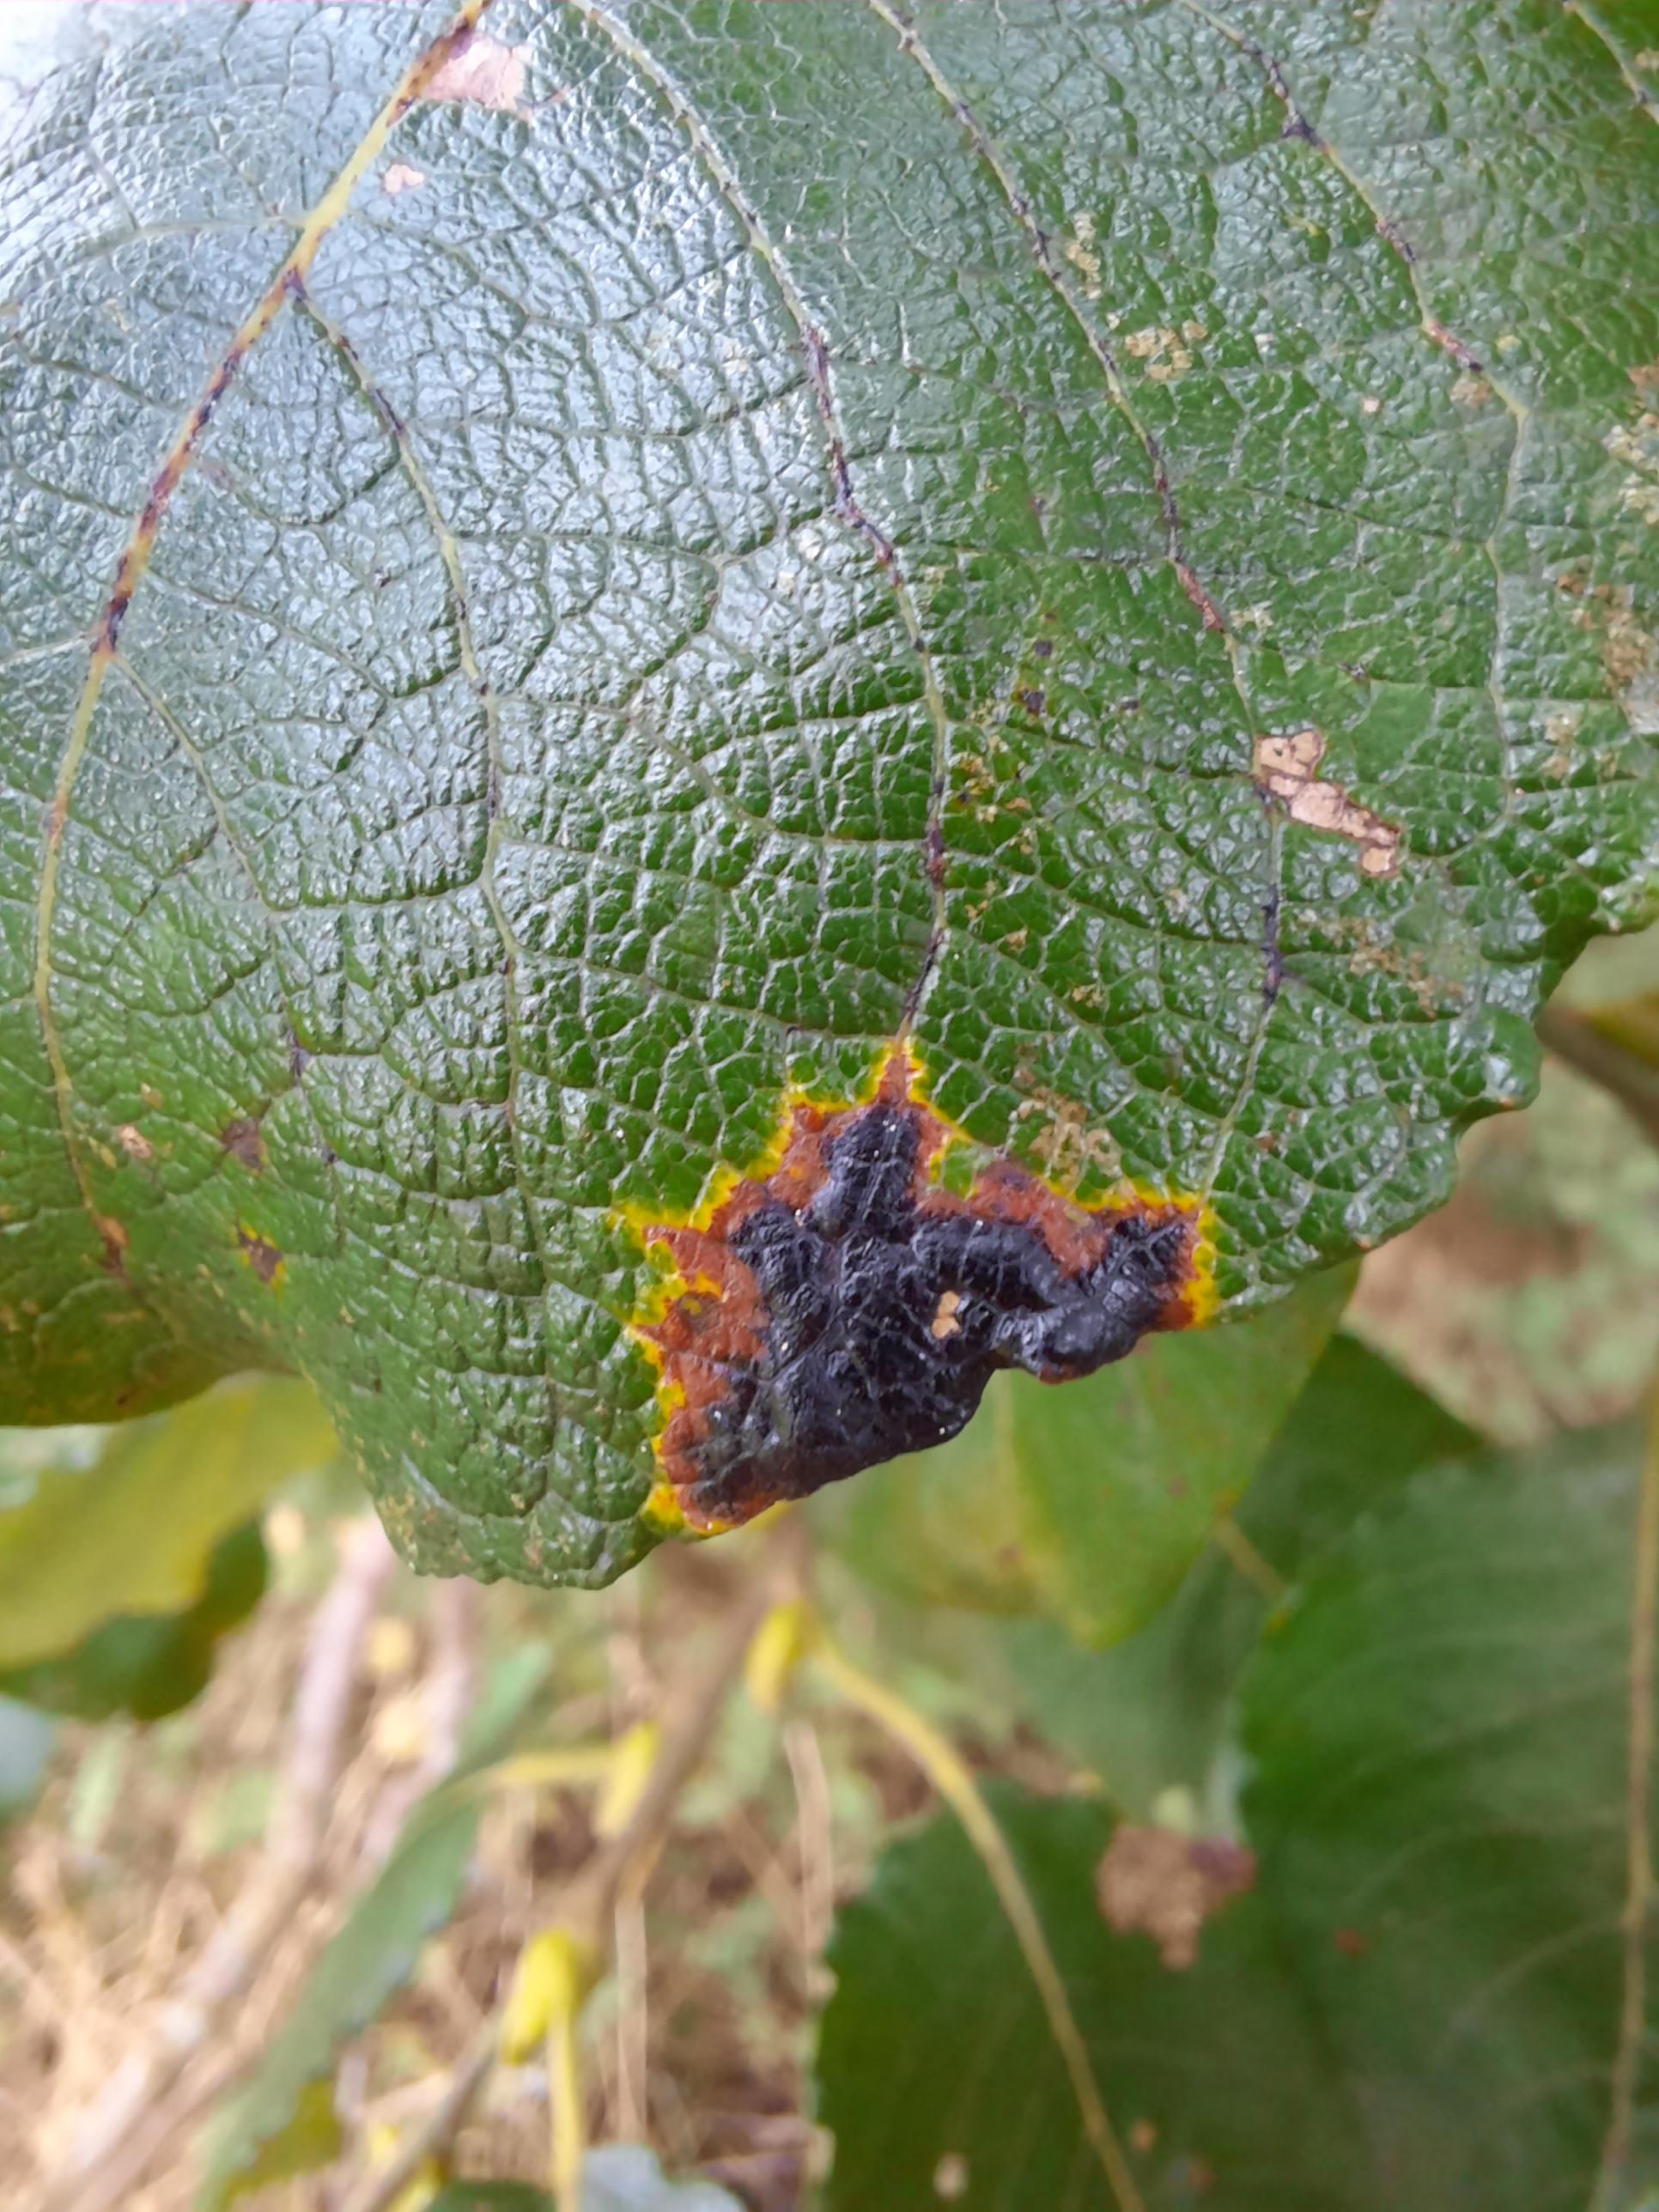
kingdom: Fungi
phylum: Ascomycota
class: Leotiomycetes
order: Rhytismatales
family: Rhytismataceae
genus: Rhytisma
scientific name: Rhytisma salicinum
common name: pile-rynkeplet
